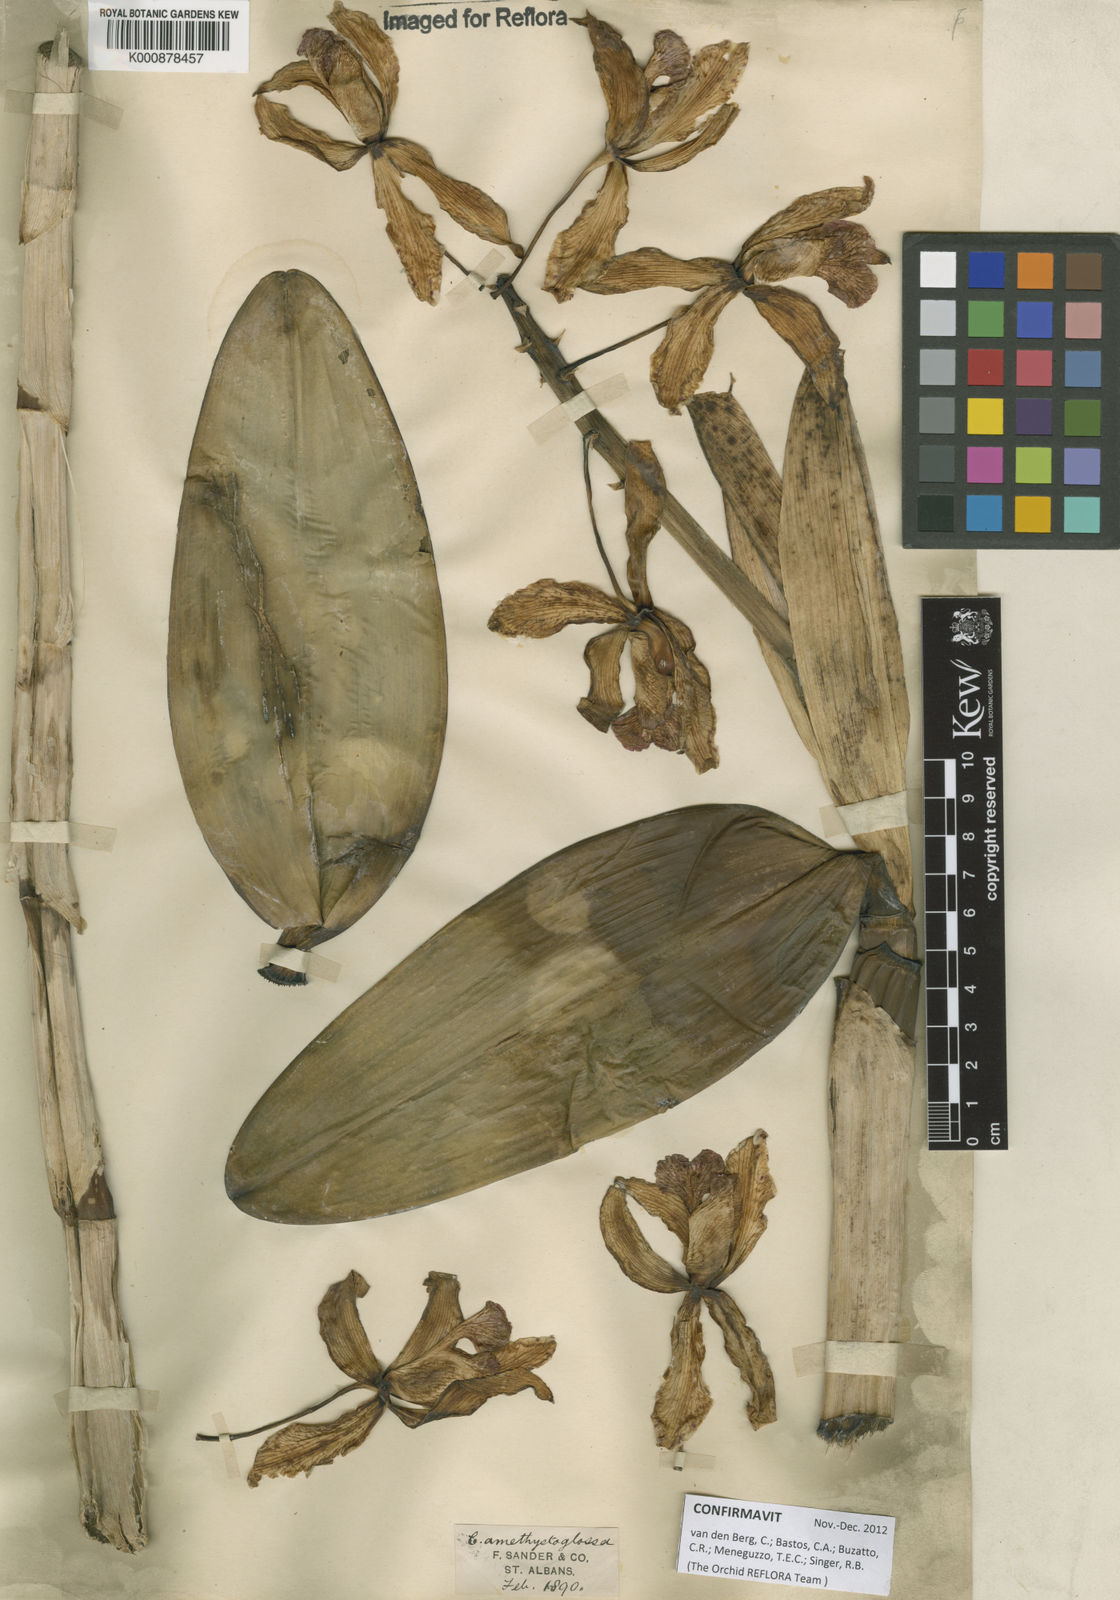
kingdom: Plantae
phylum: Tracheophyta
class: Liliopsida
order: Asparagales
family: Orchidaceae
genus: Cattleya
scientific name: Cattleya
